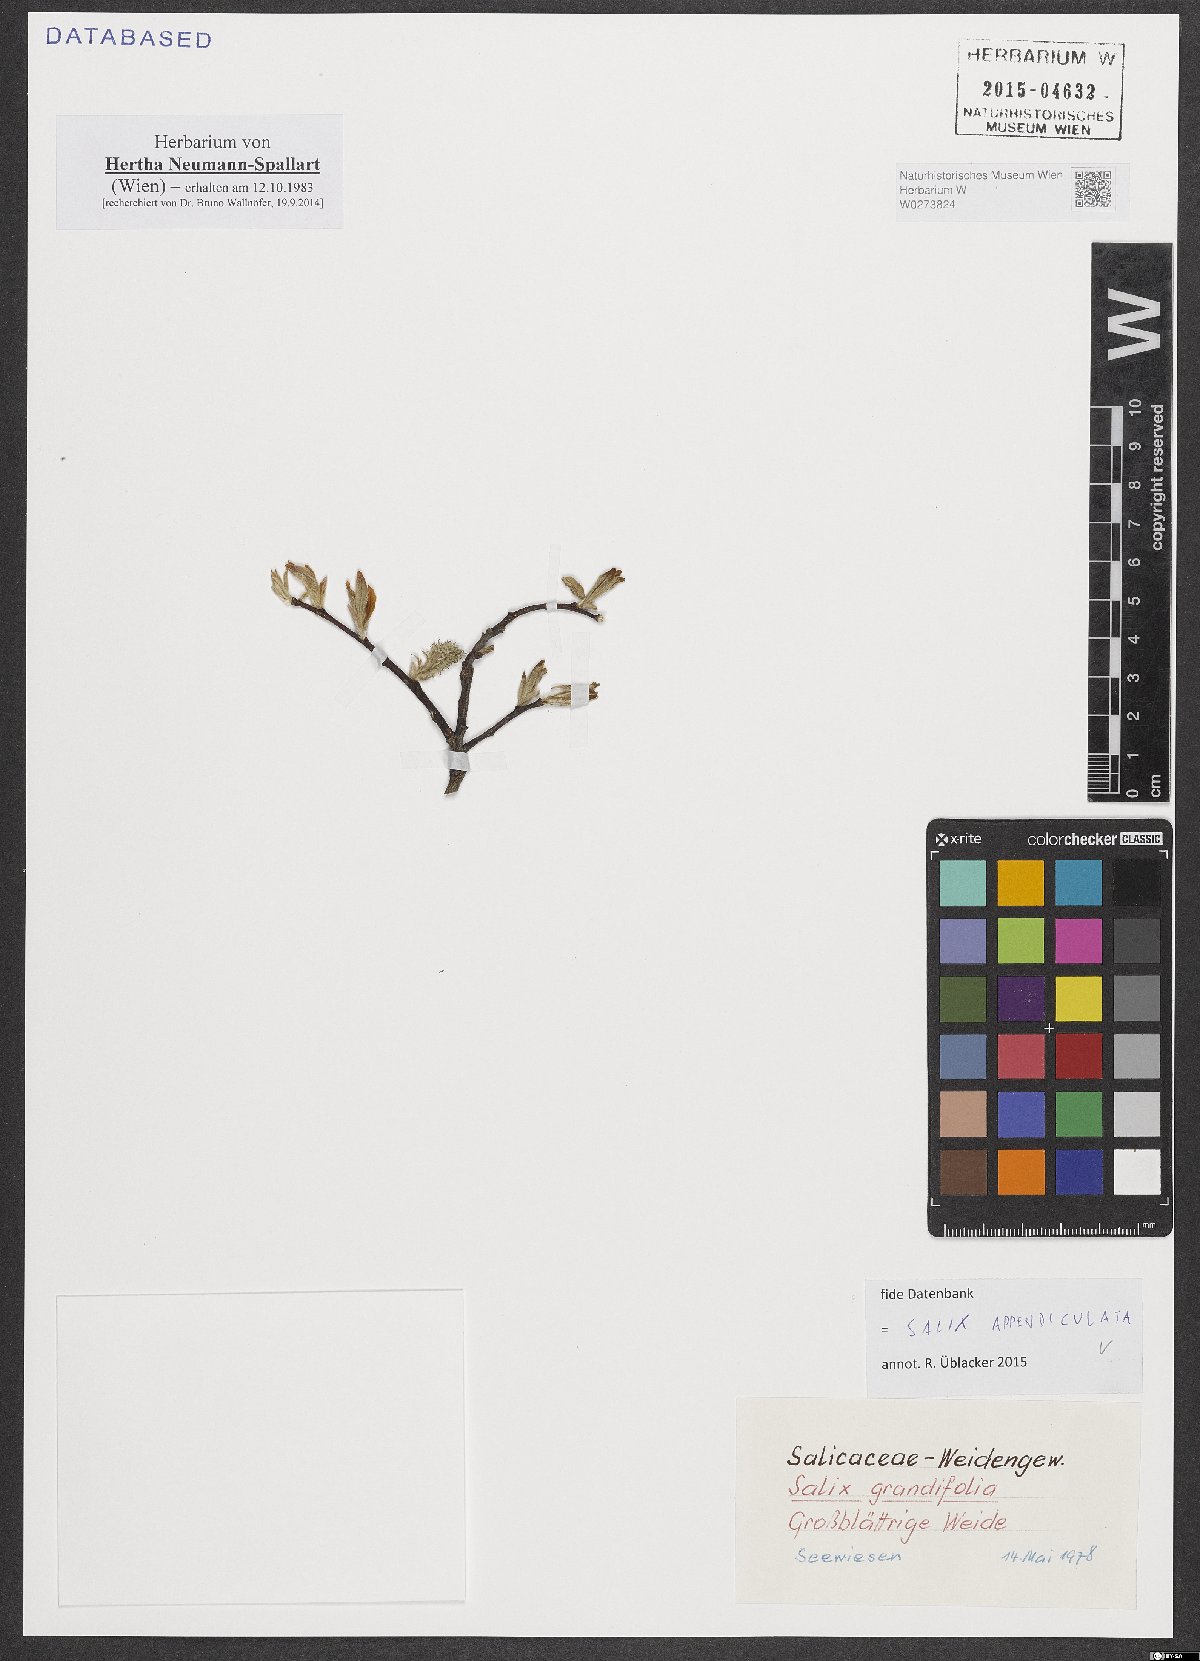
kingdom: Plantae
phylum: Tracheophyta
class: Magnoliopsida
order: Malpighiales
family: Salicaceae
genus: Salix
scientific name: Salix appendiculata
